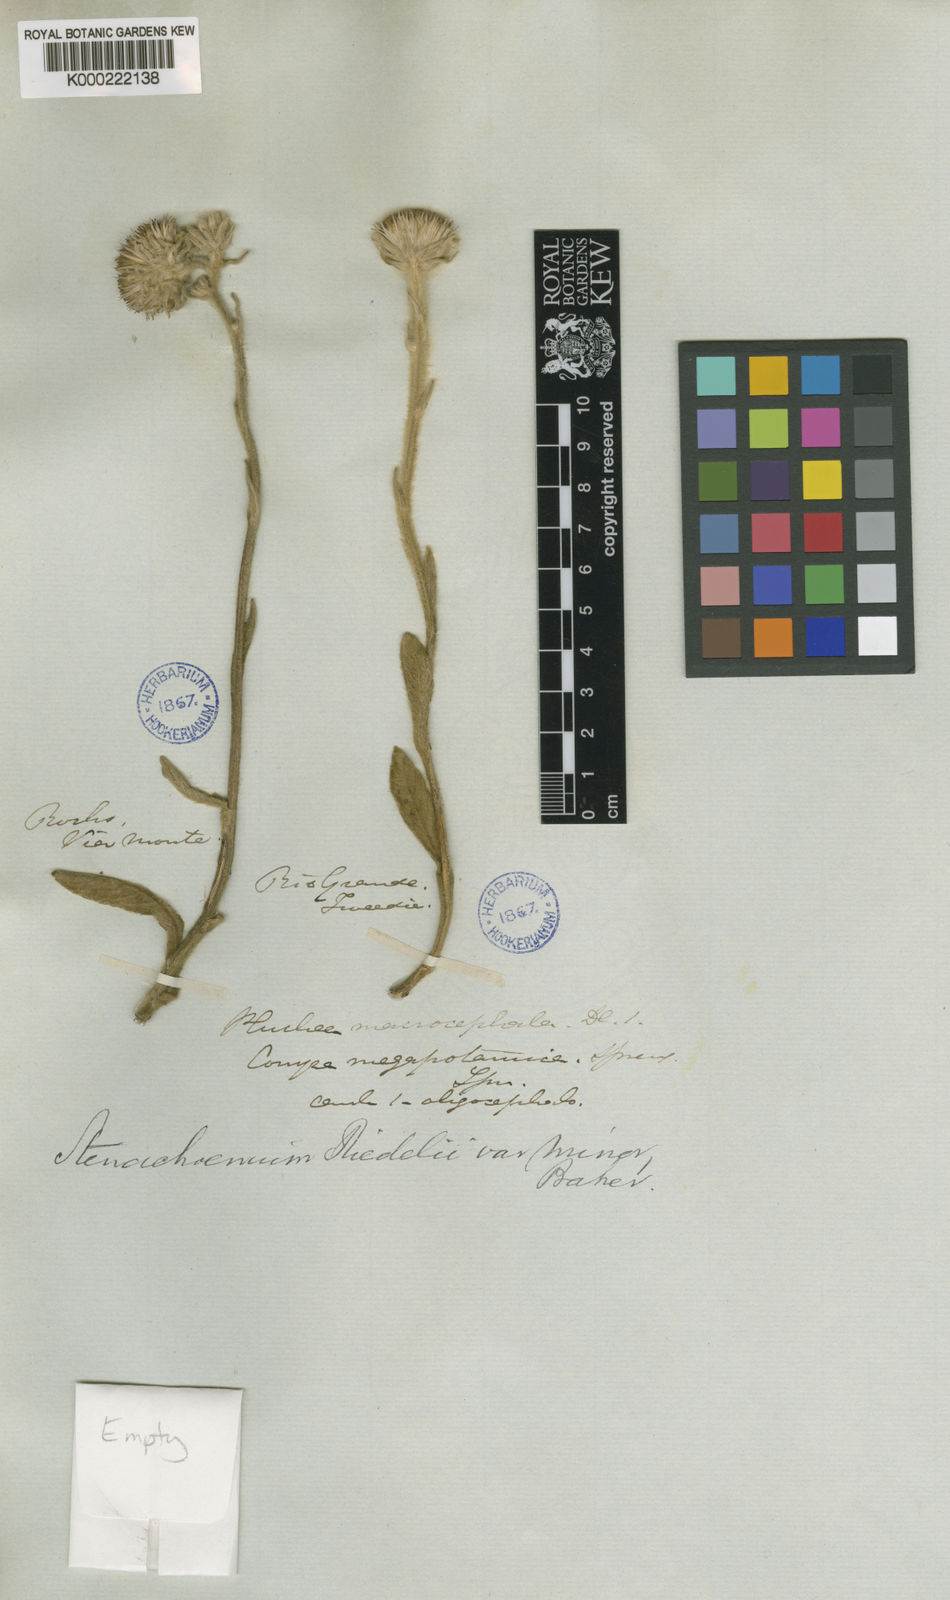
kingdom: Plantae
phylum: Tracheophyta
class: Magnoliopsida
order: Asterales
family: Asteraceae
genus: Stenachaenium
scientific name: Stenachaenium riedelii
